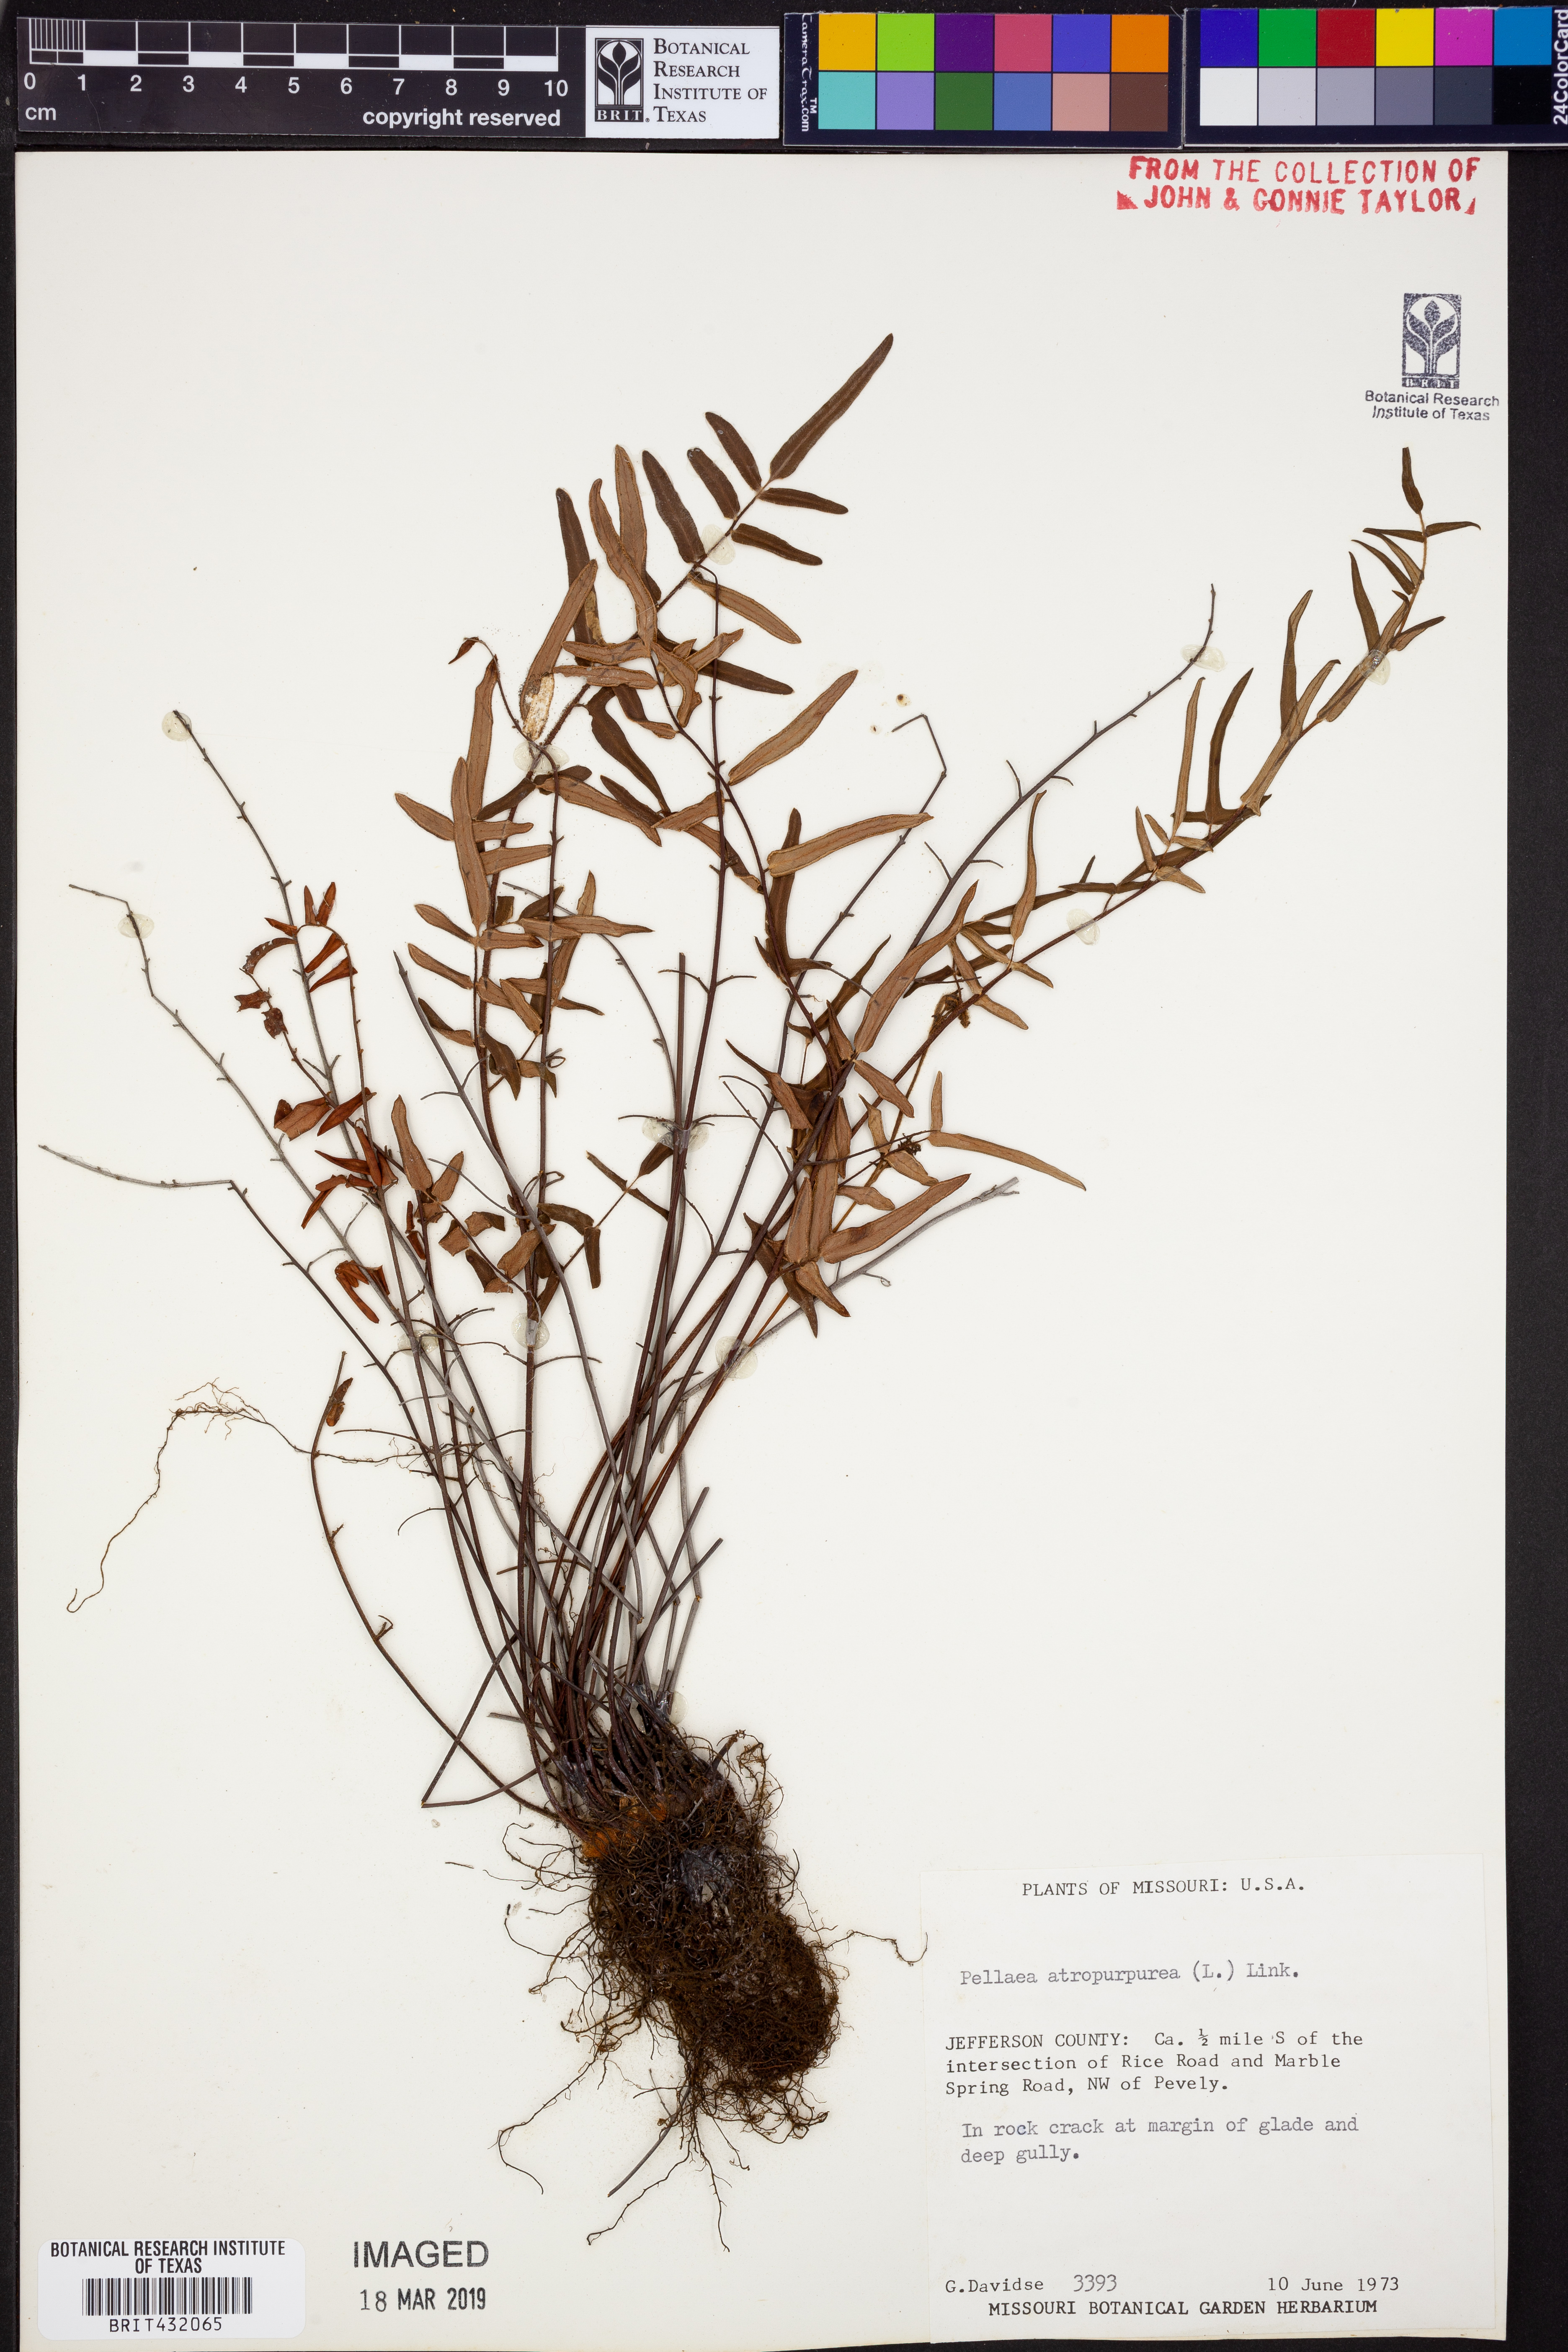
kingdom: Plantae
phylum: Tracheophyta
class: Polypodiopsida
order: Polypodiales
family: Pteridaceae
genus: Pellaea
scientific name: Pellaea atropurpurea
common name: Hairy cliffbrake
